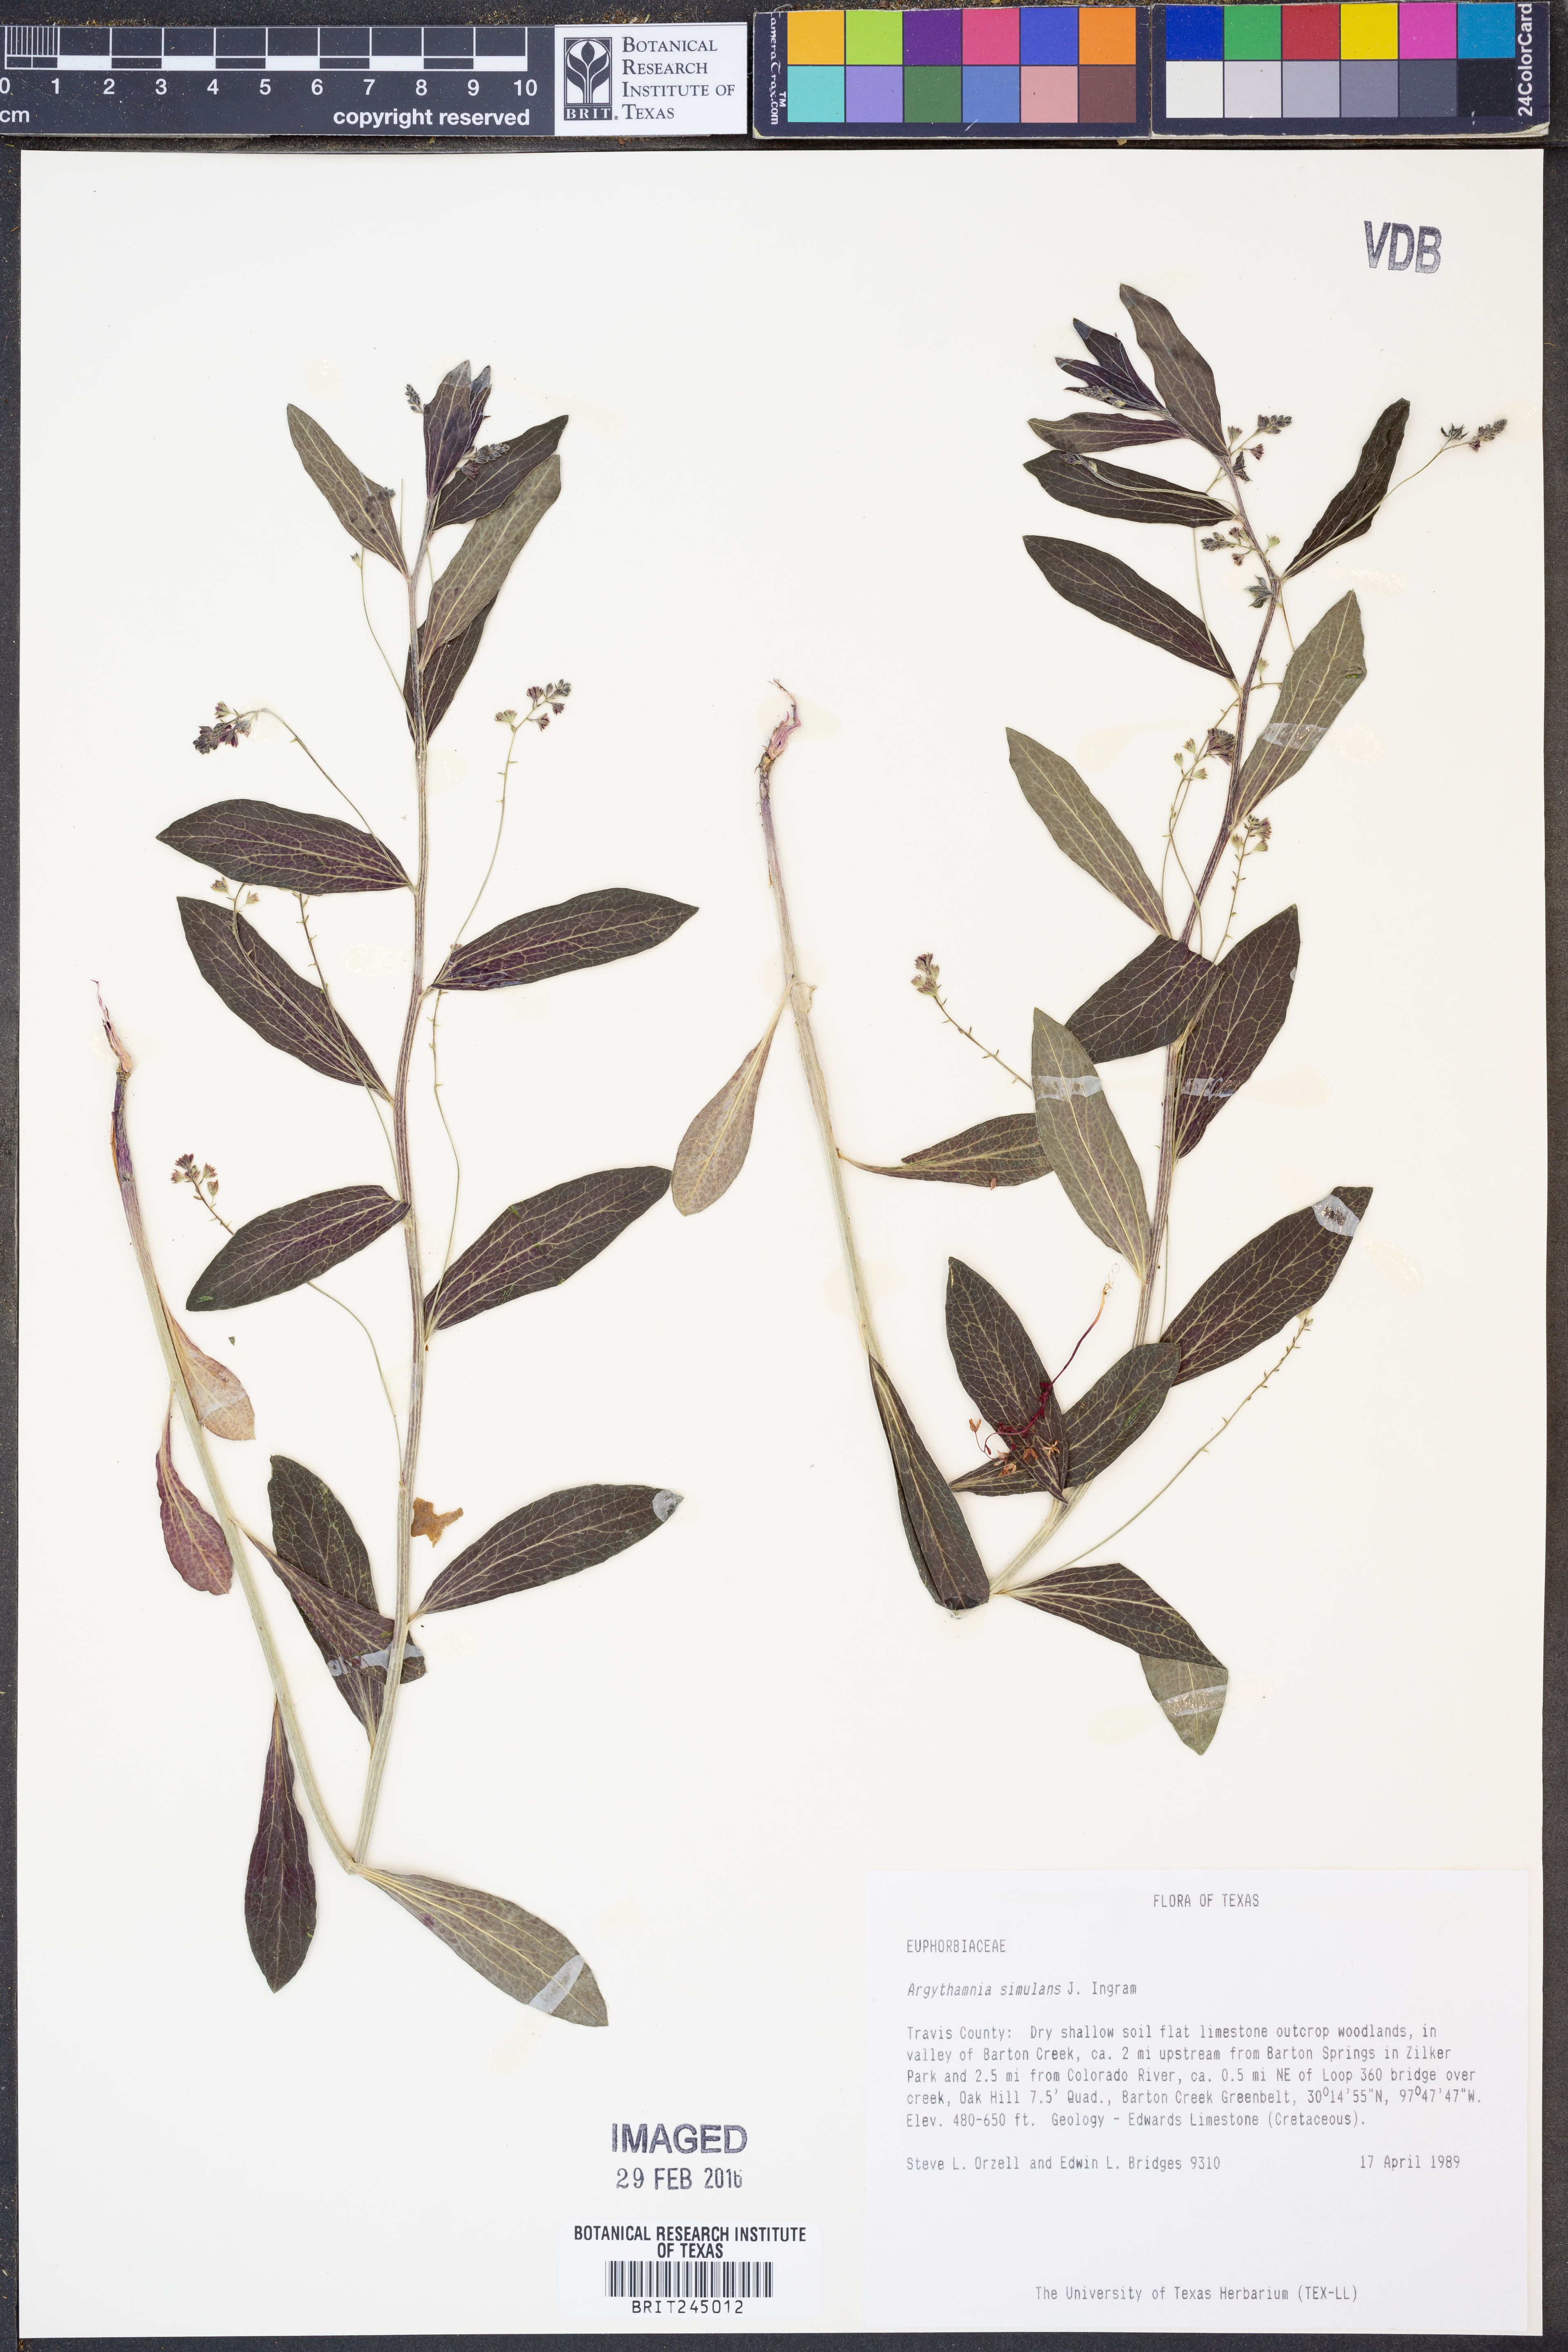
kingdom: Plantae
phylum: Tracheophyta
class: Magnoliopsida
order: Malpighiales
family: Euphorbiaceae
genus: Ditaxis
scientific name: Ditaxis simulans
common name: Plateau silverbush
